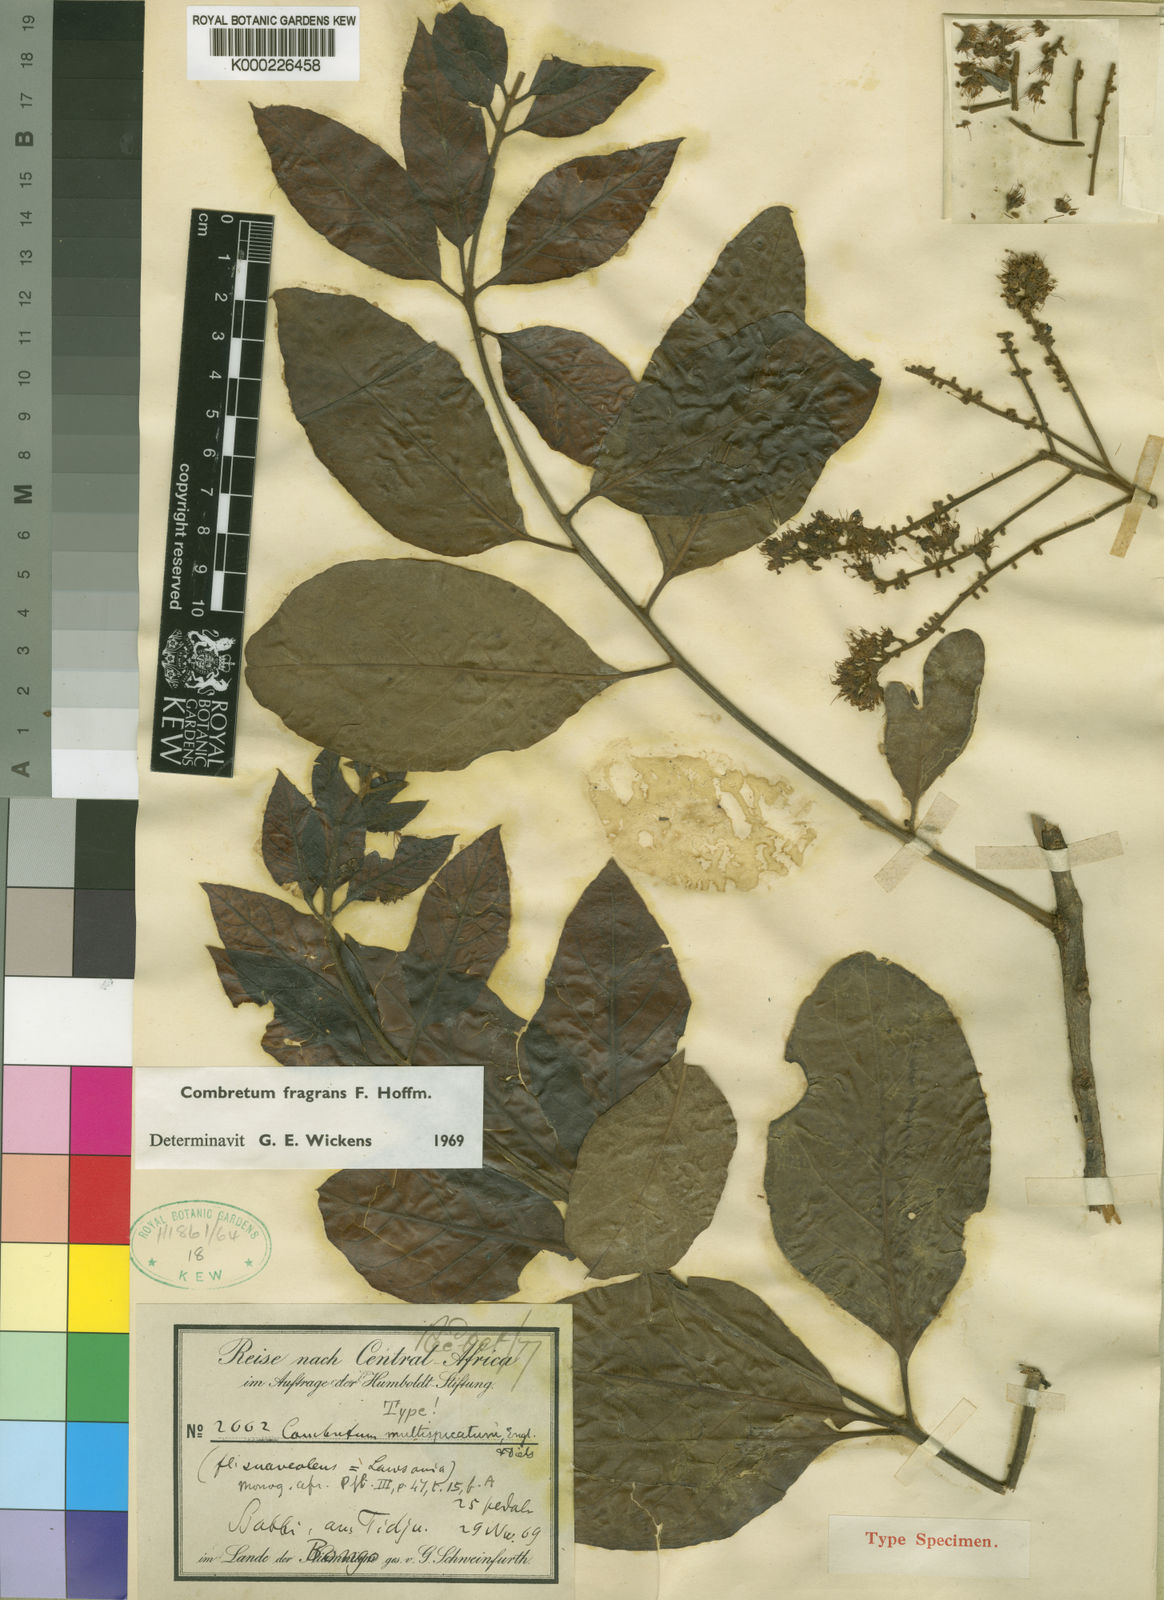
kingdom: Plantae
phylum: Tracheophyta
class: Magnoliopsida
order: Myrtales
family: Combretaceae
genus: Combretum
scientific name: Combretum adenogonium
